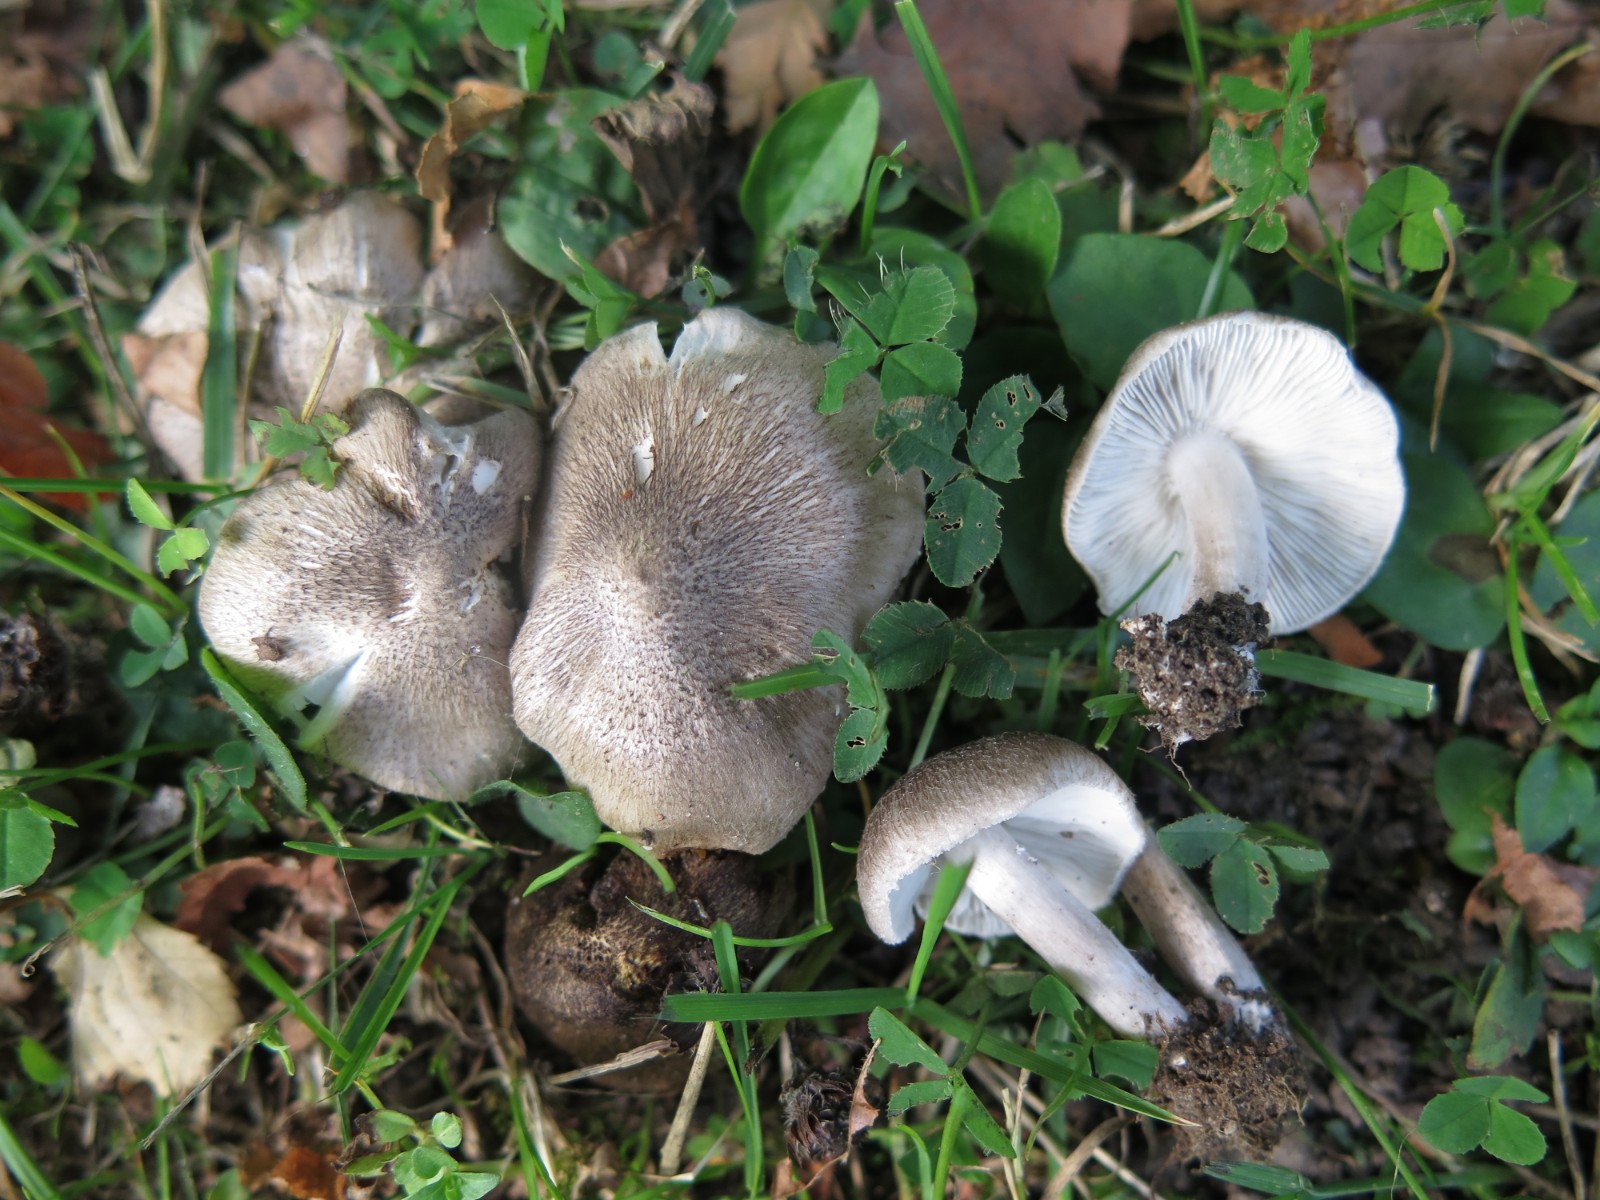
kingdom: Fungi
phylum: Basidiomycota
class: Agaricomycetes
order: Agaricales
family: Tricholomataceae
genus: Tricholoma
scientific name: Tricholoma terreum
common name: jordfarvet ridderhat
